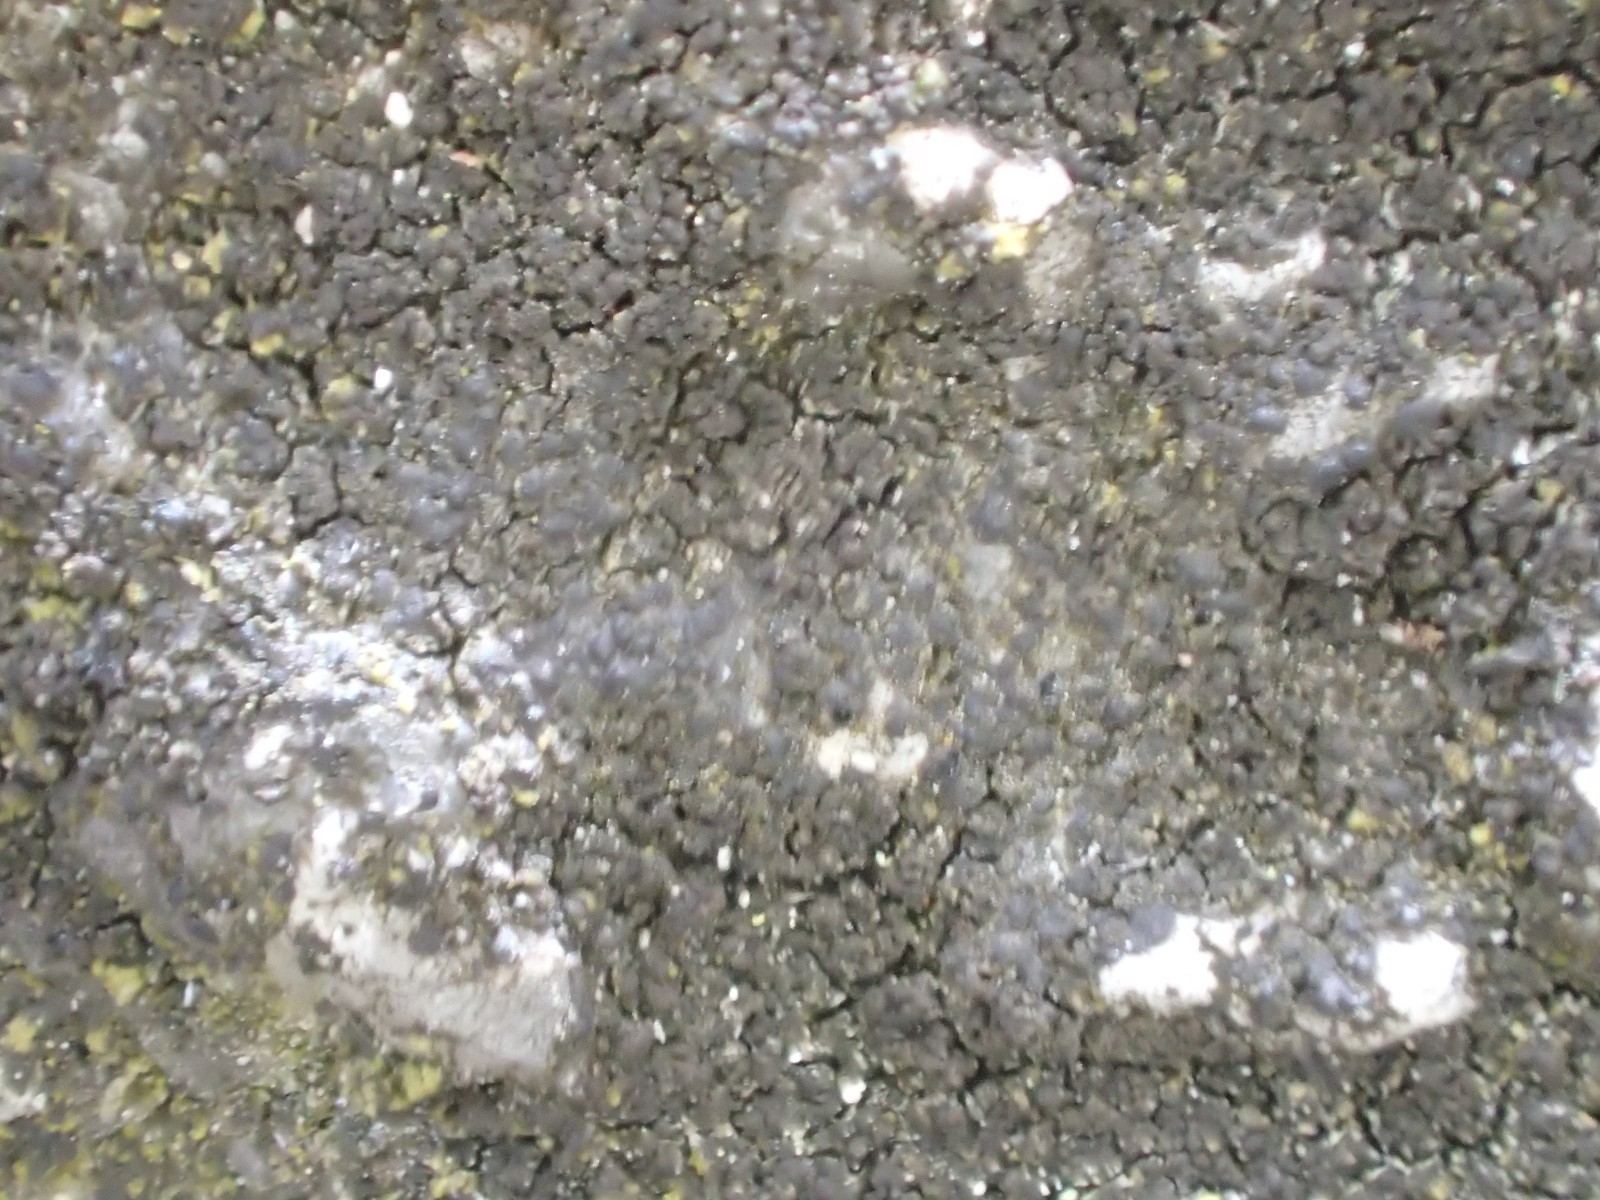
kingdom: Fungi
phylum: Ascomycota
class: Eurotiomycetes
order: Verrucariales
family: Verrucariaceae
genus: Verrucaria
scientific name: Verrucaria nigrescens
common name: sortbrun vortelav
